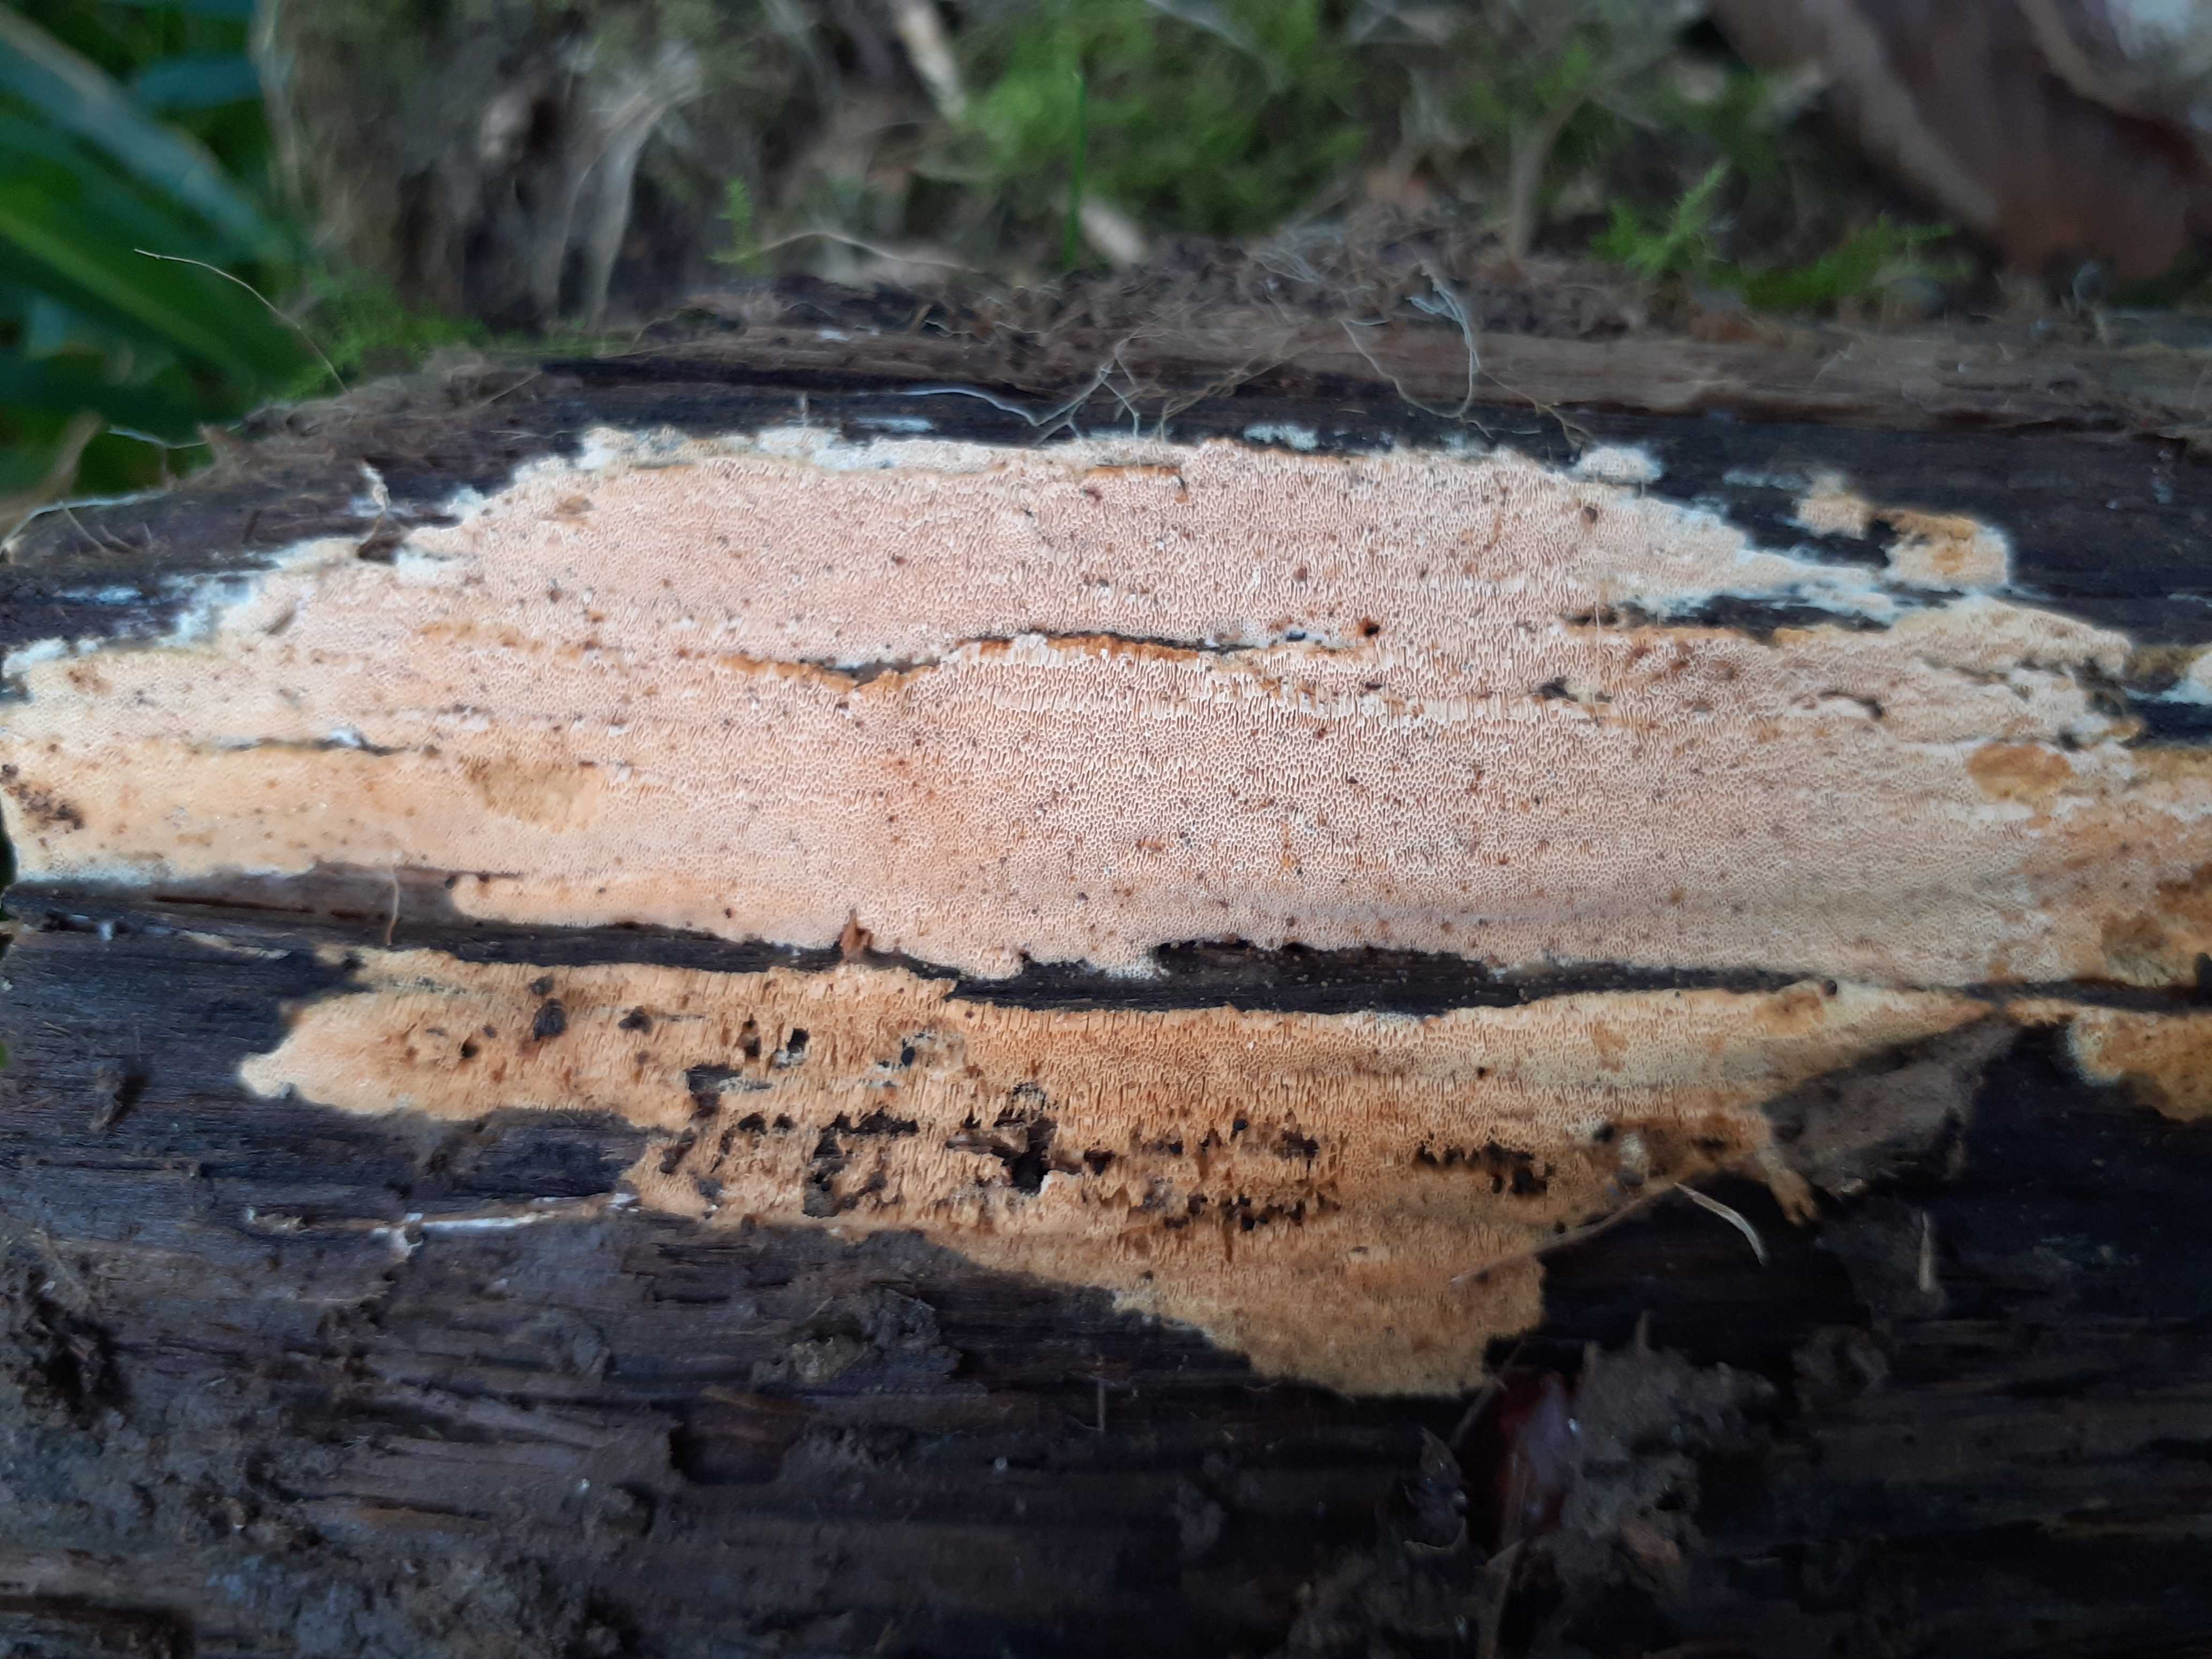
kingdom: Fungi
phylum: Basidiomycota
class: Agaricomycetes
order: Hymenochaetales
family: Schizoporaceae
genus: Xylodon
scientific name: Xylodon flaviporus
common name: gulporet tandsvamp
